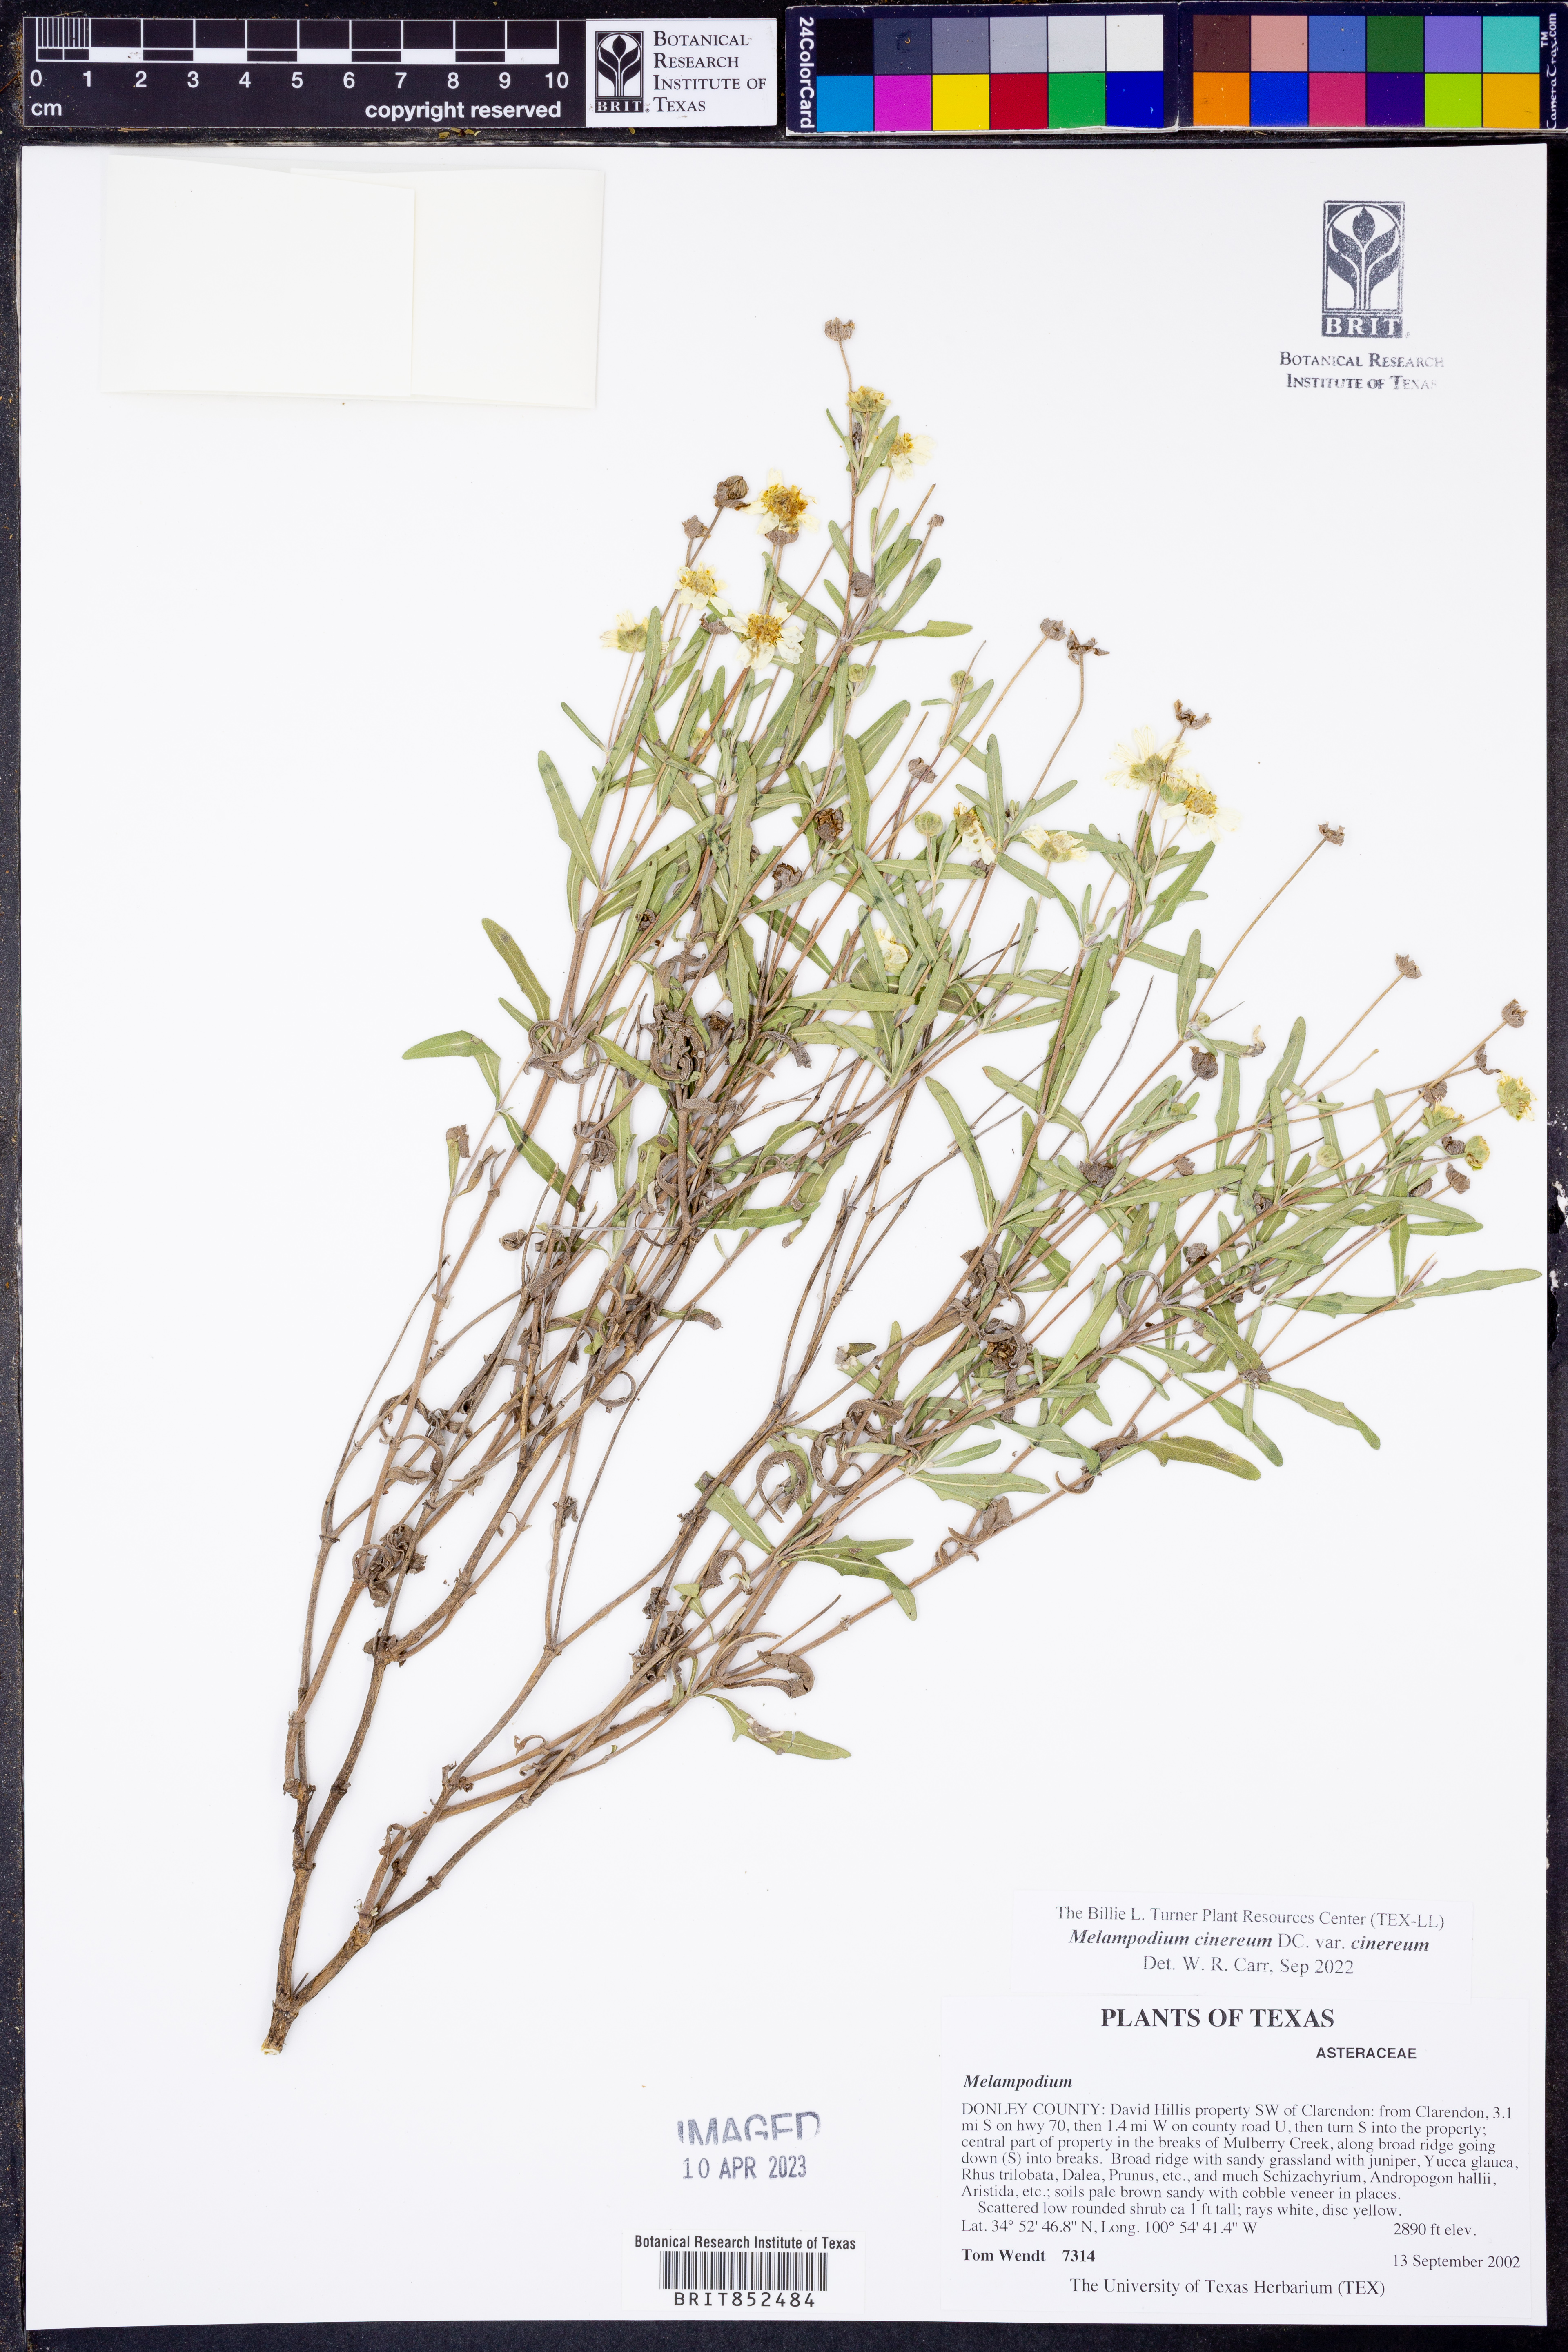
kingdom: Plantae
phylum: Tracheophyta
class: Magnoliopsida
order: Asterales
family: Asteraceae
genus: Melampodium
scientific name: Melampodium cinereum
